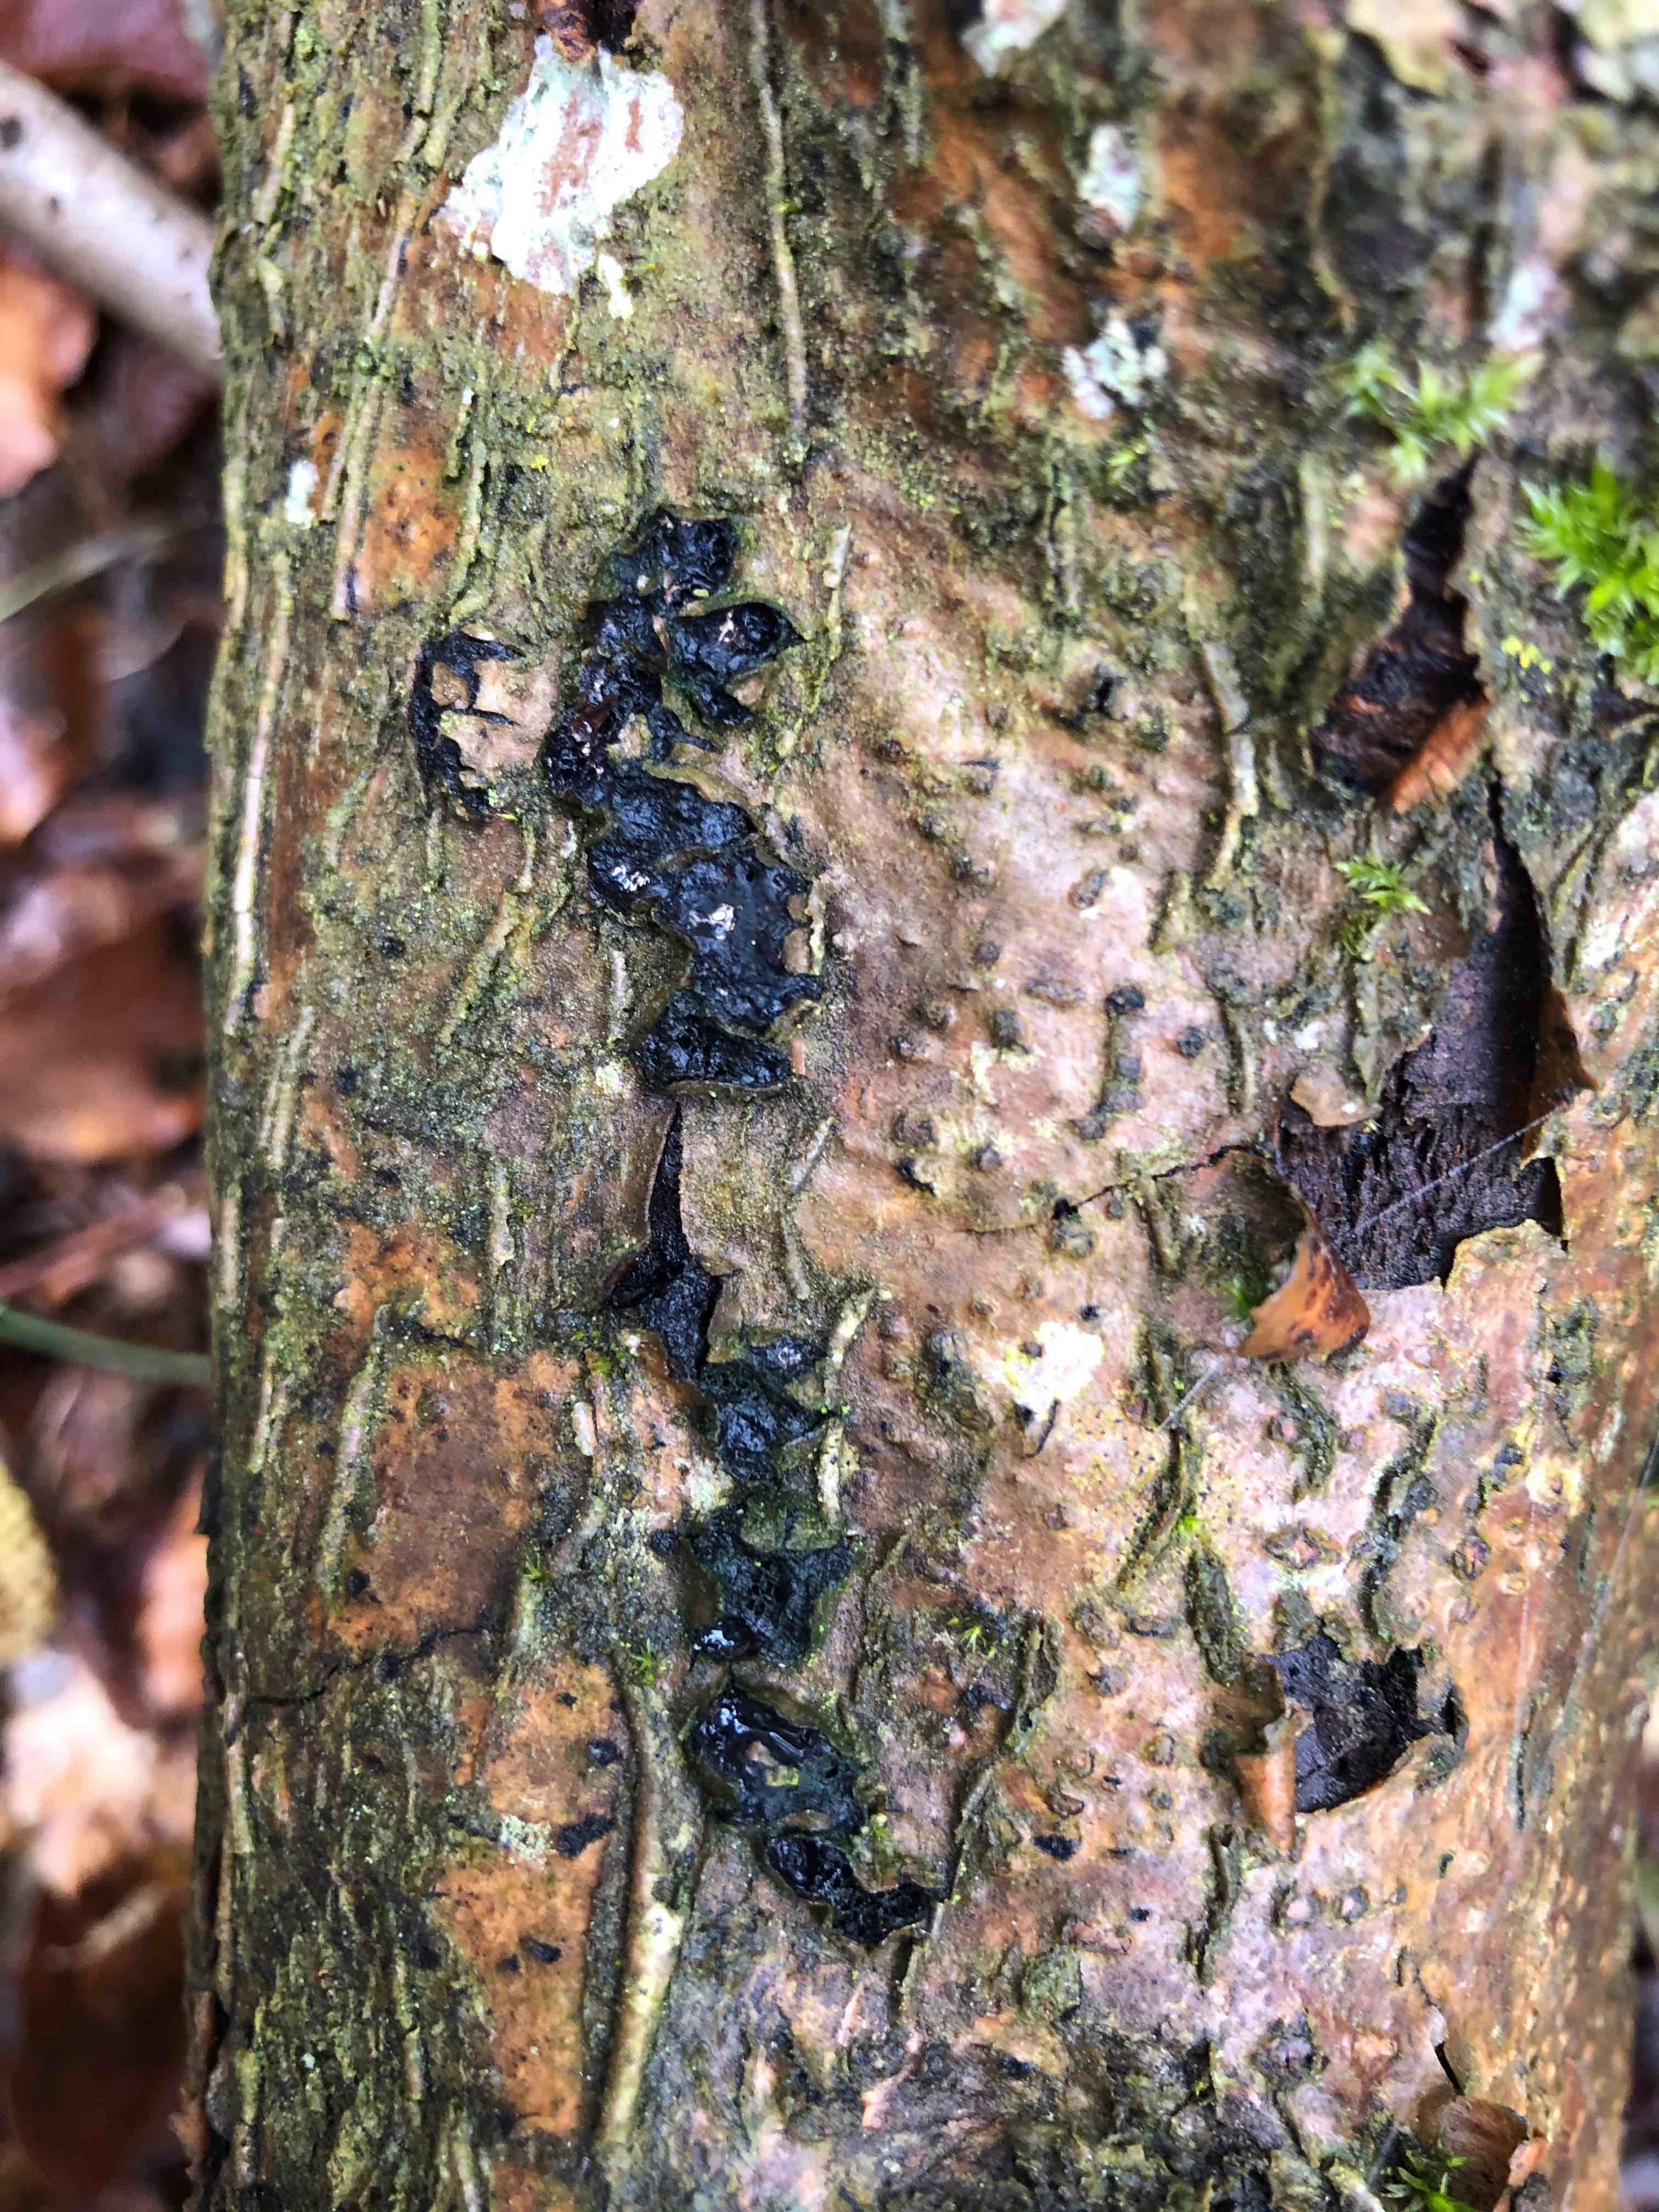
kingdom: Fungi
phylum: Ascomycota
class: Sordariomycetes
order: Xylariales
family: Diatrypaceae
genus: Diatrypella
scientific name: Diatrypella favacea
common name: klemt kulskorpe
